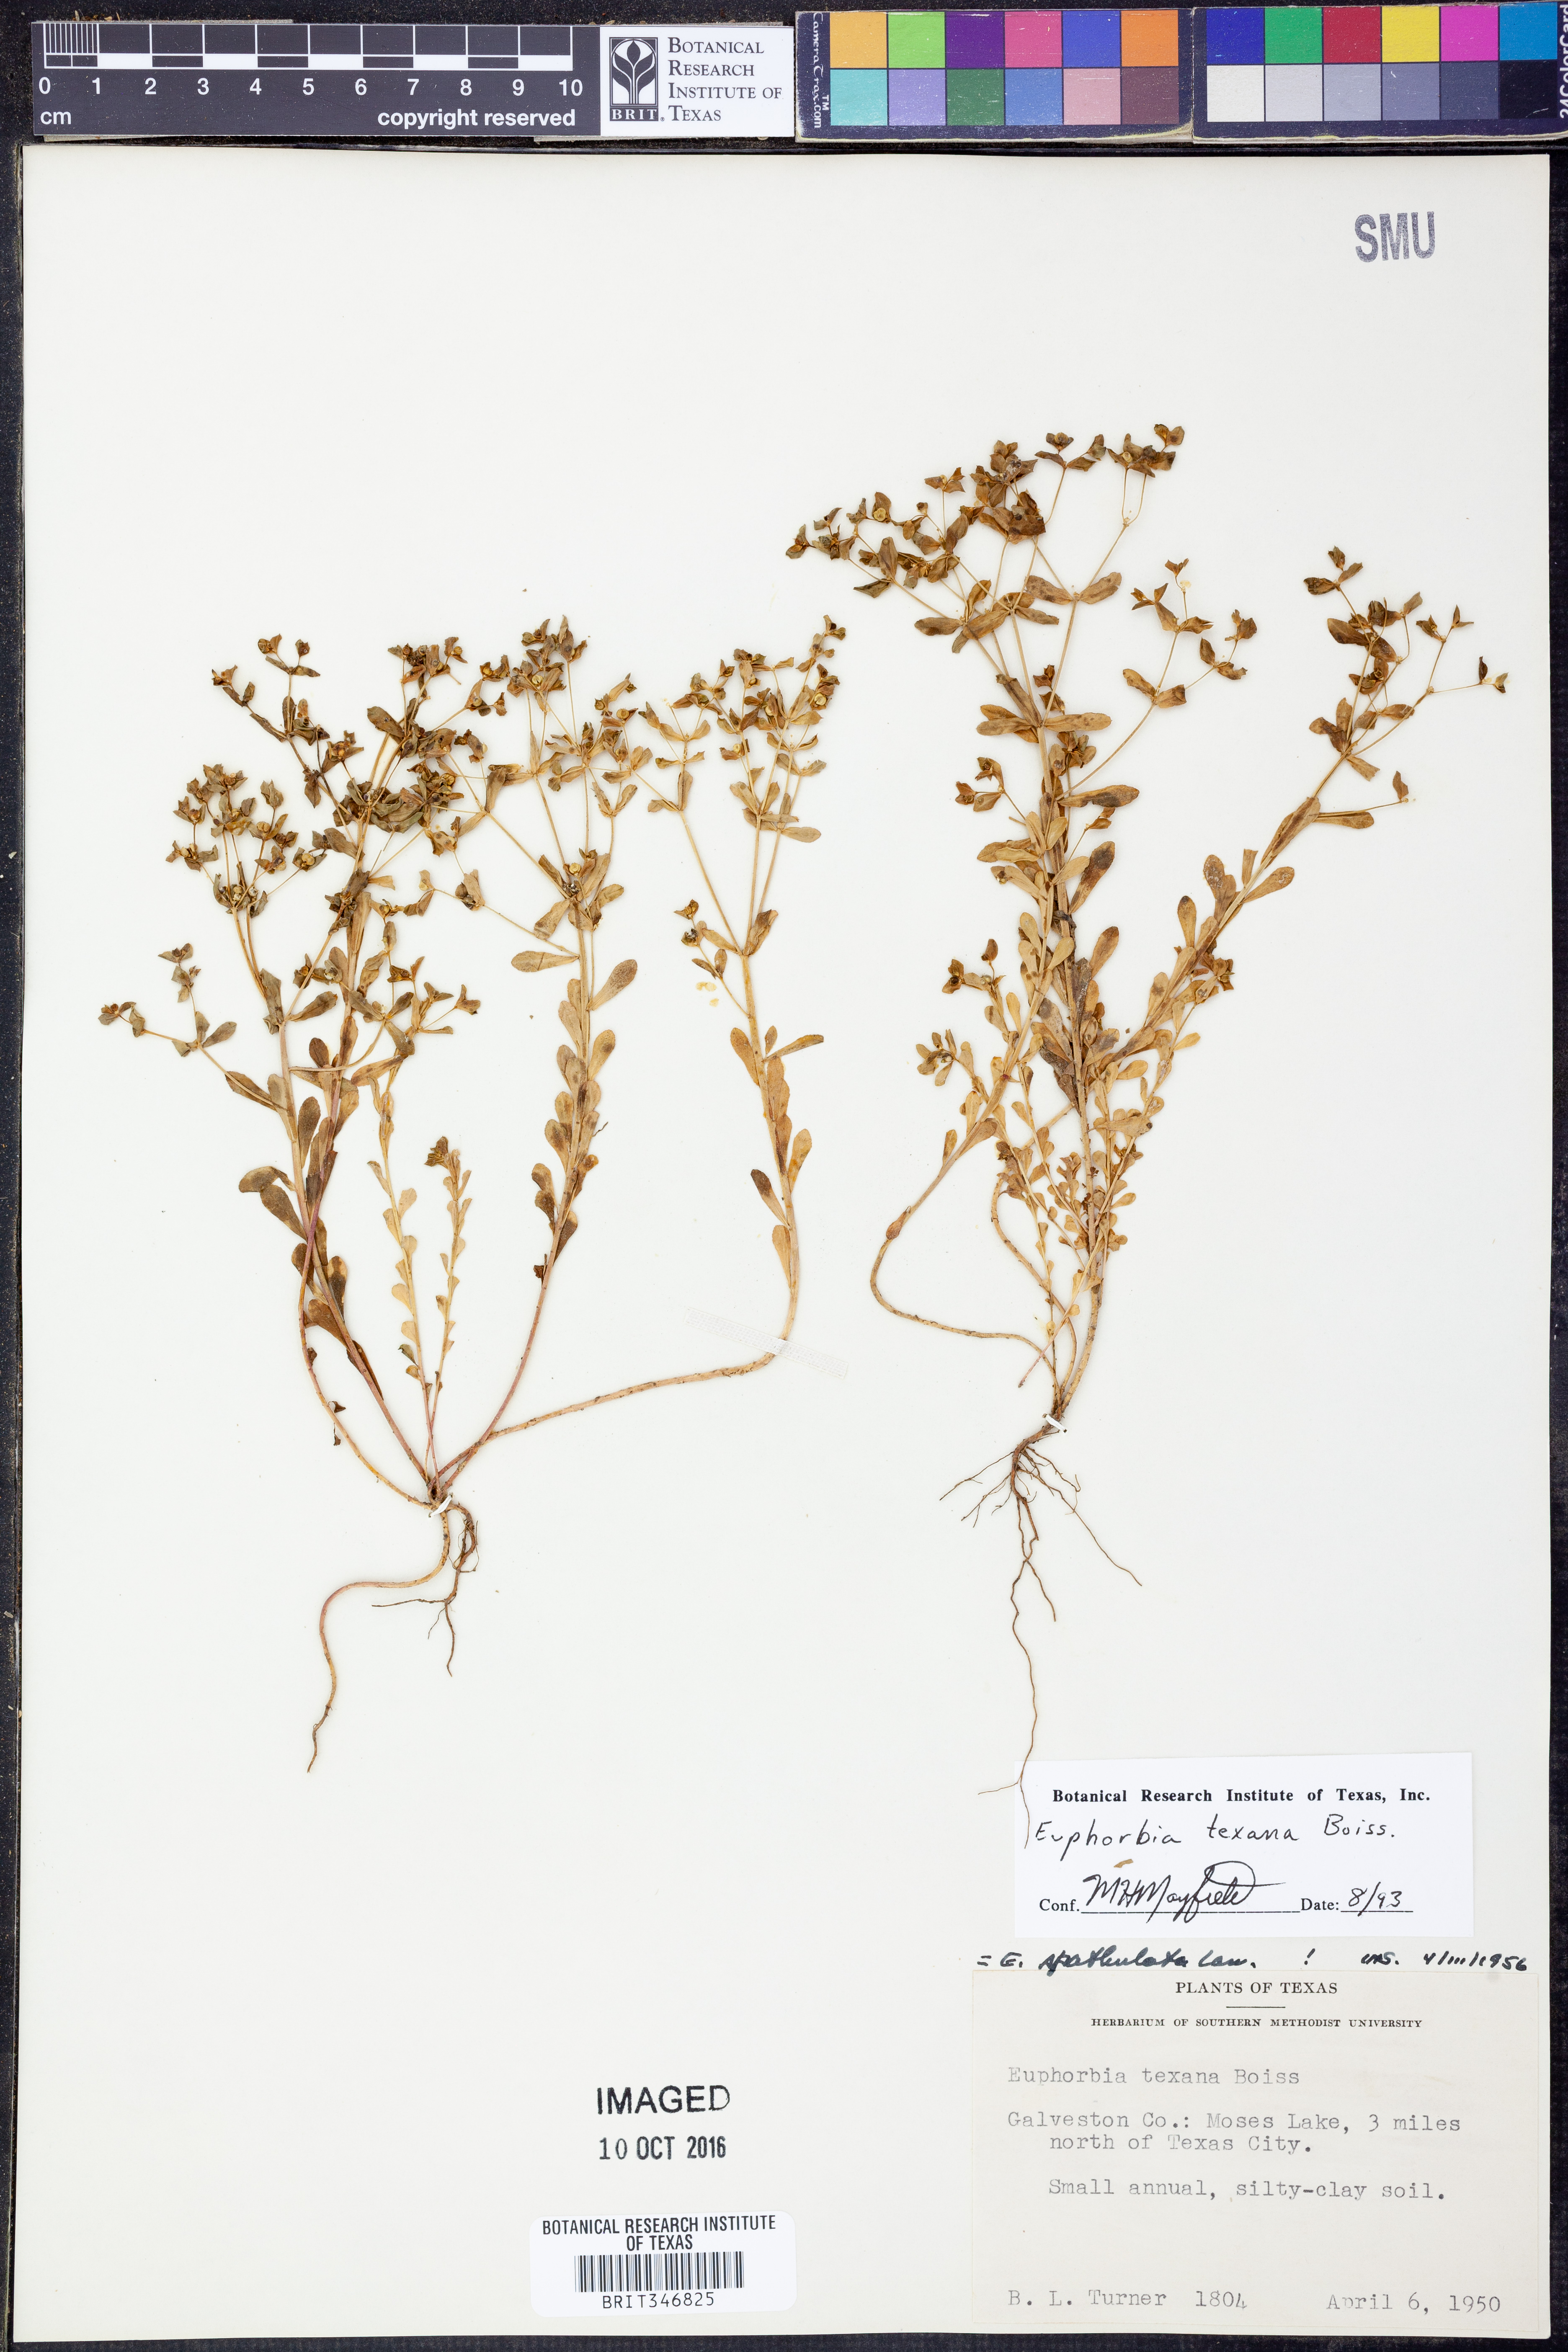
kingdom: Plantae
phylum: Tracheophyta
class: Magnoliopsida
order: Malpighiales
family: Euphorbiaceae
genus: Euphorbia
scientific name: Euphorbia texana
